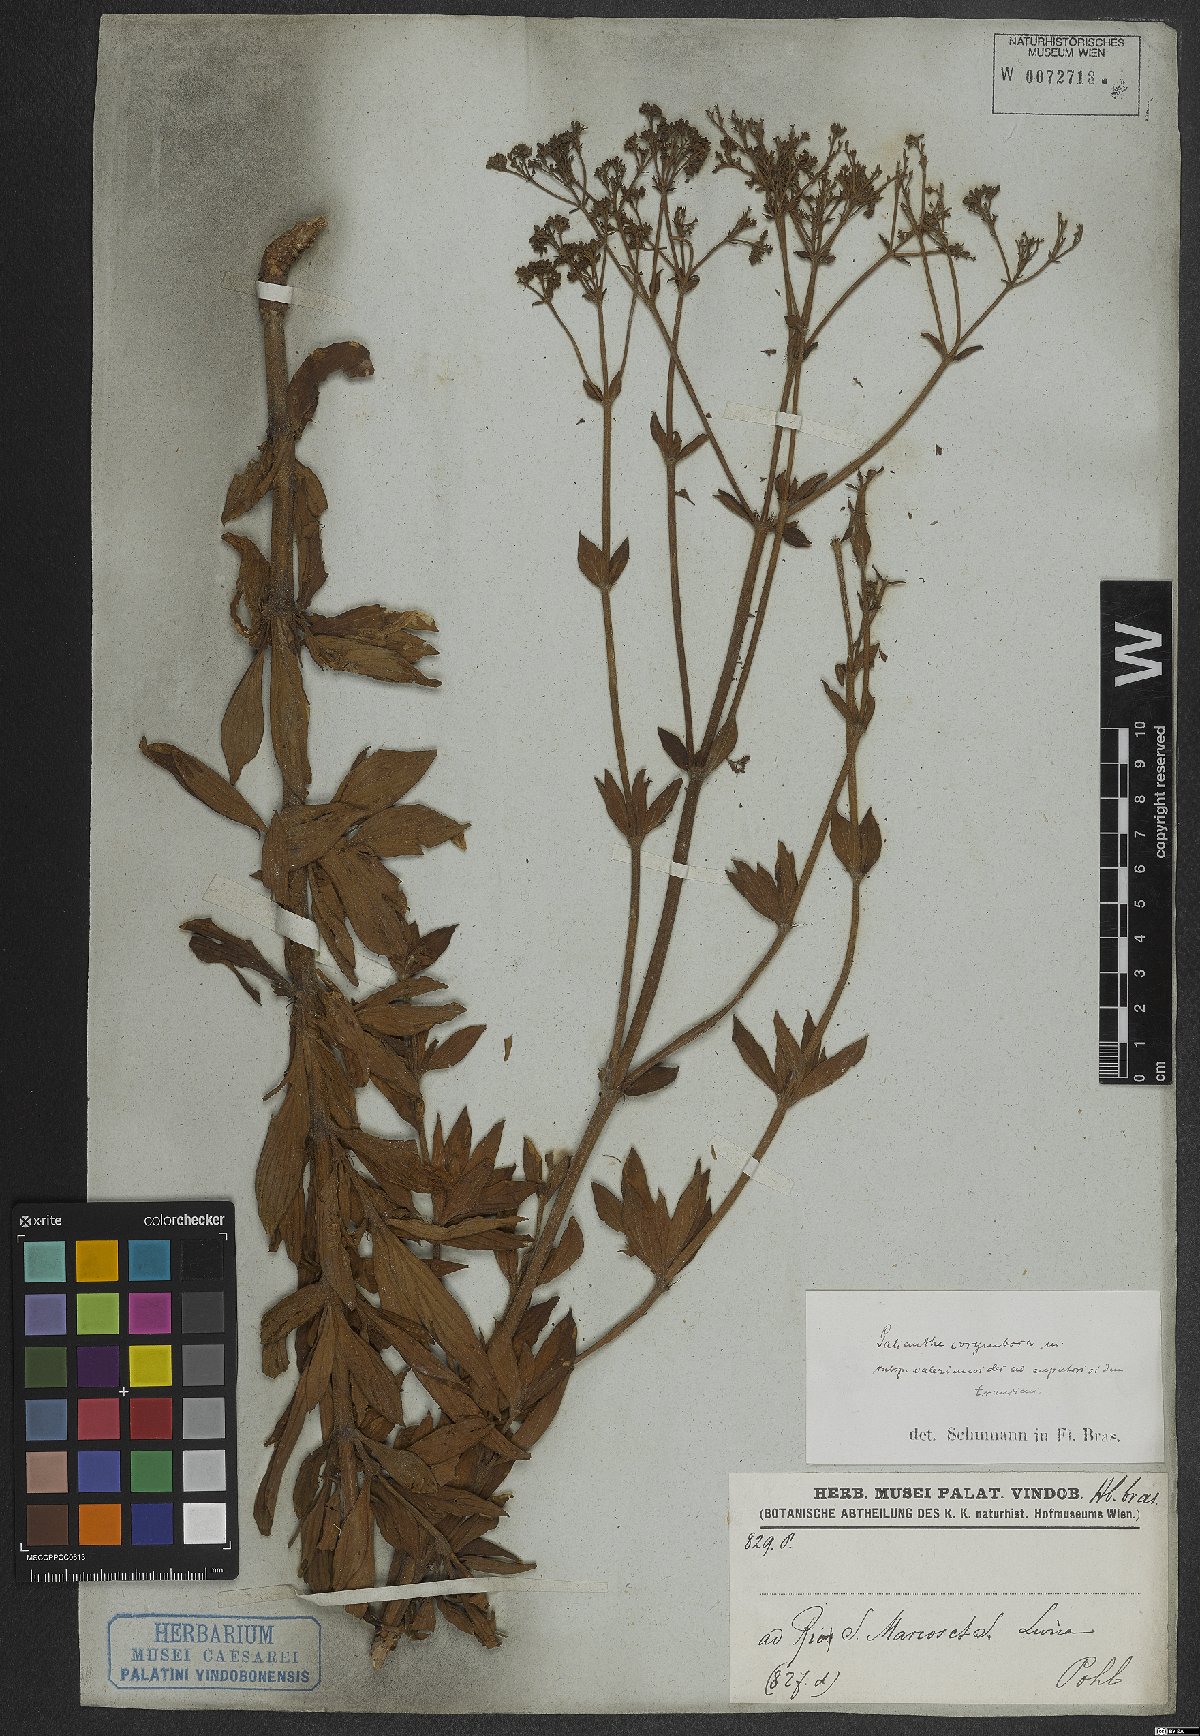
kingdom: Plantae
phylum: Tracheophyta
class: Magnoliopsida
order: Gentianales
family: Rubiaceae
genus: Galianthe
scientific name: Galianthe peruviana
